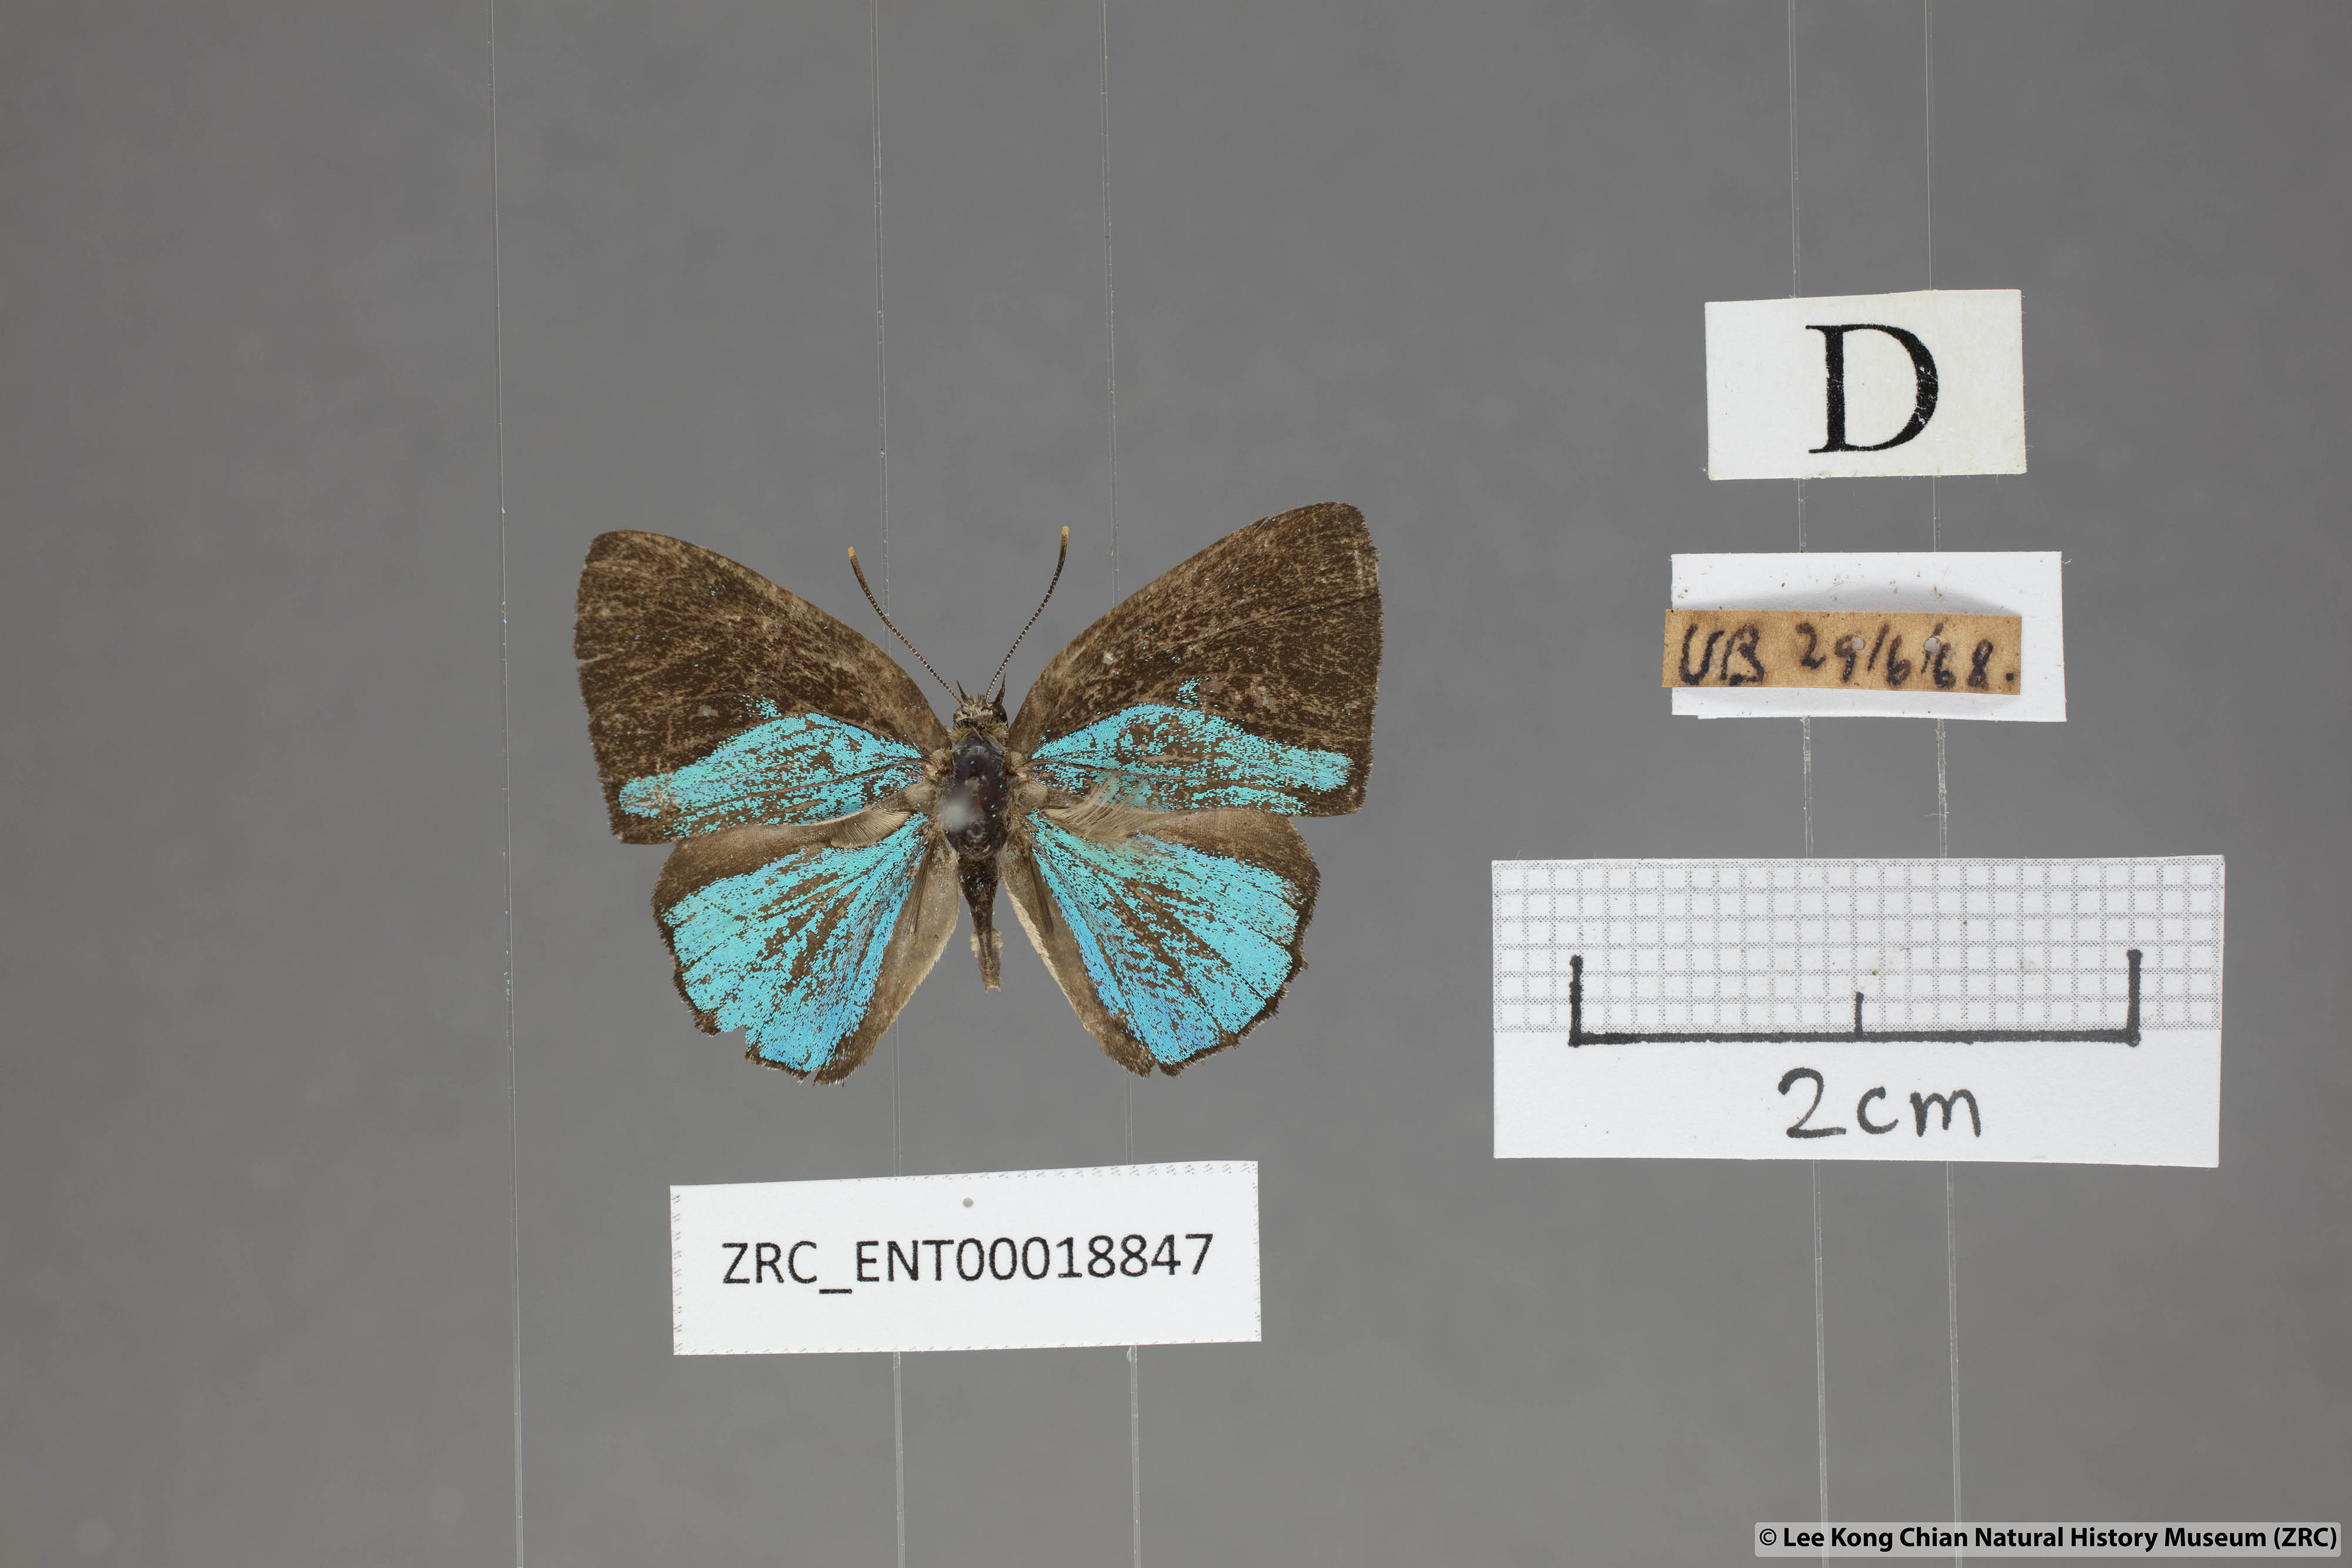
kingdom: Animalia
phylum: Arthropoda
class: Insecta
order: Lepidoptera
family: Lycaenidae
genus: Poritia
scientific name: Poritia sumatrae
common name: Sumatran gem
